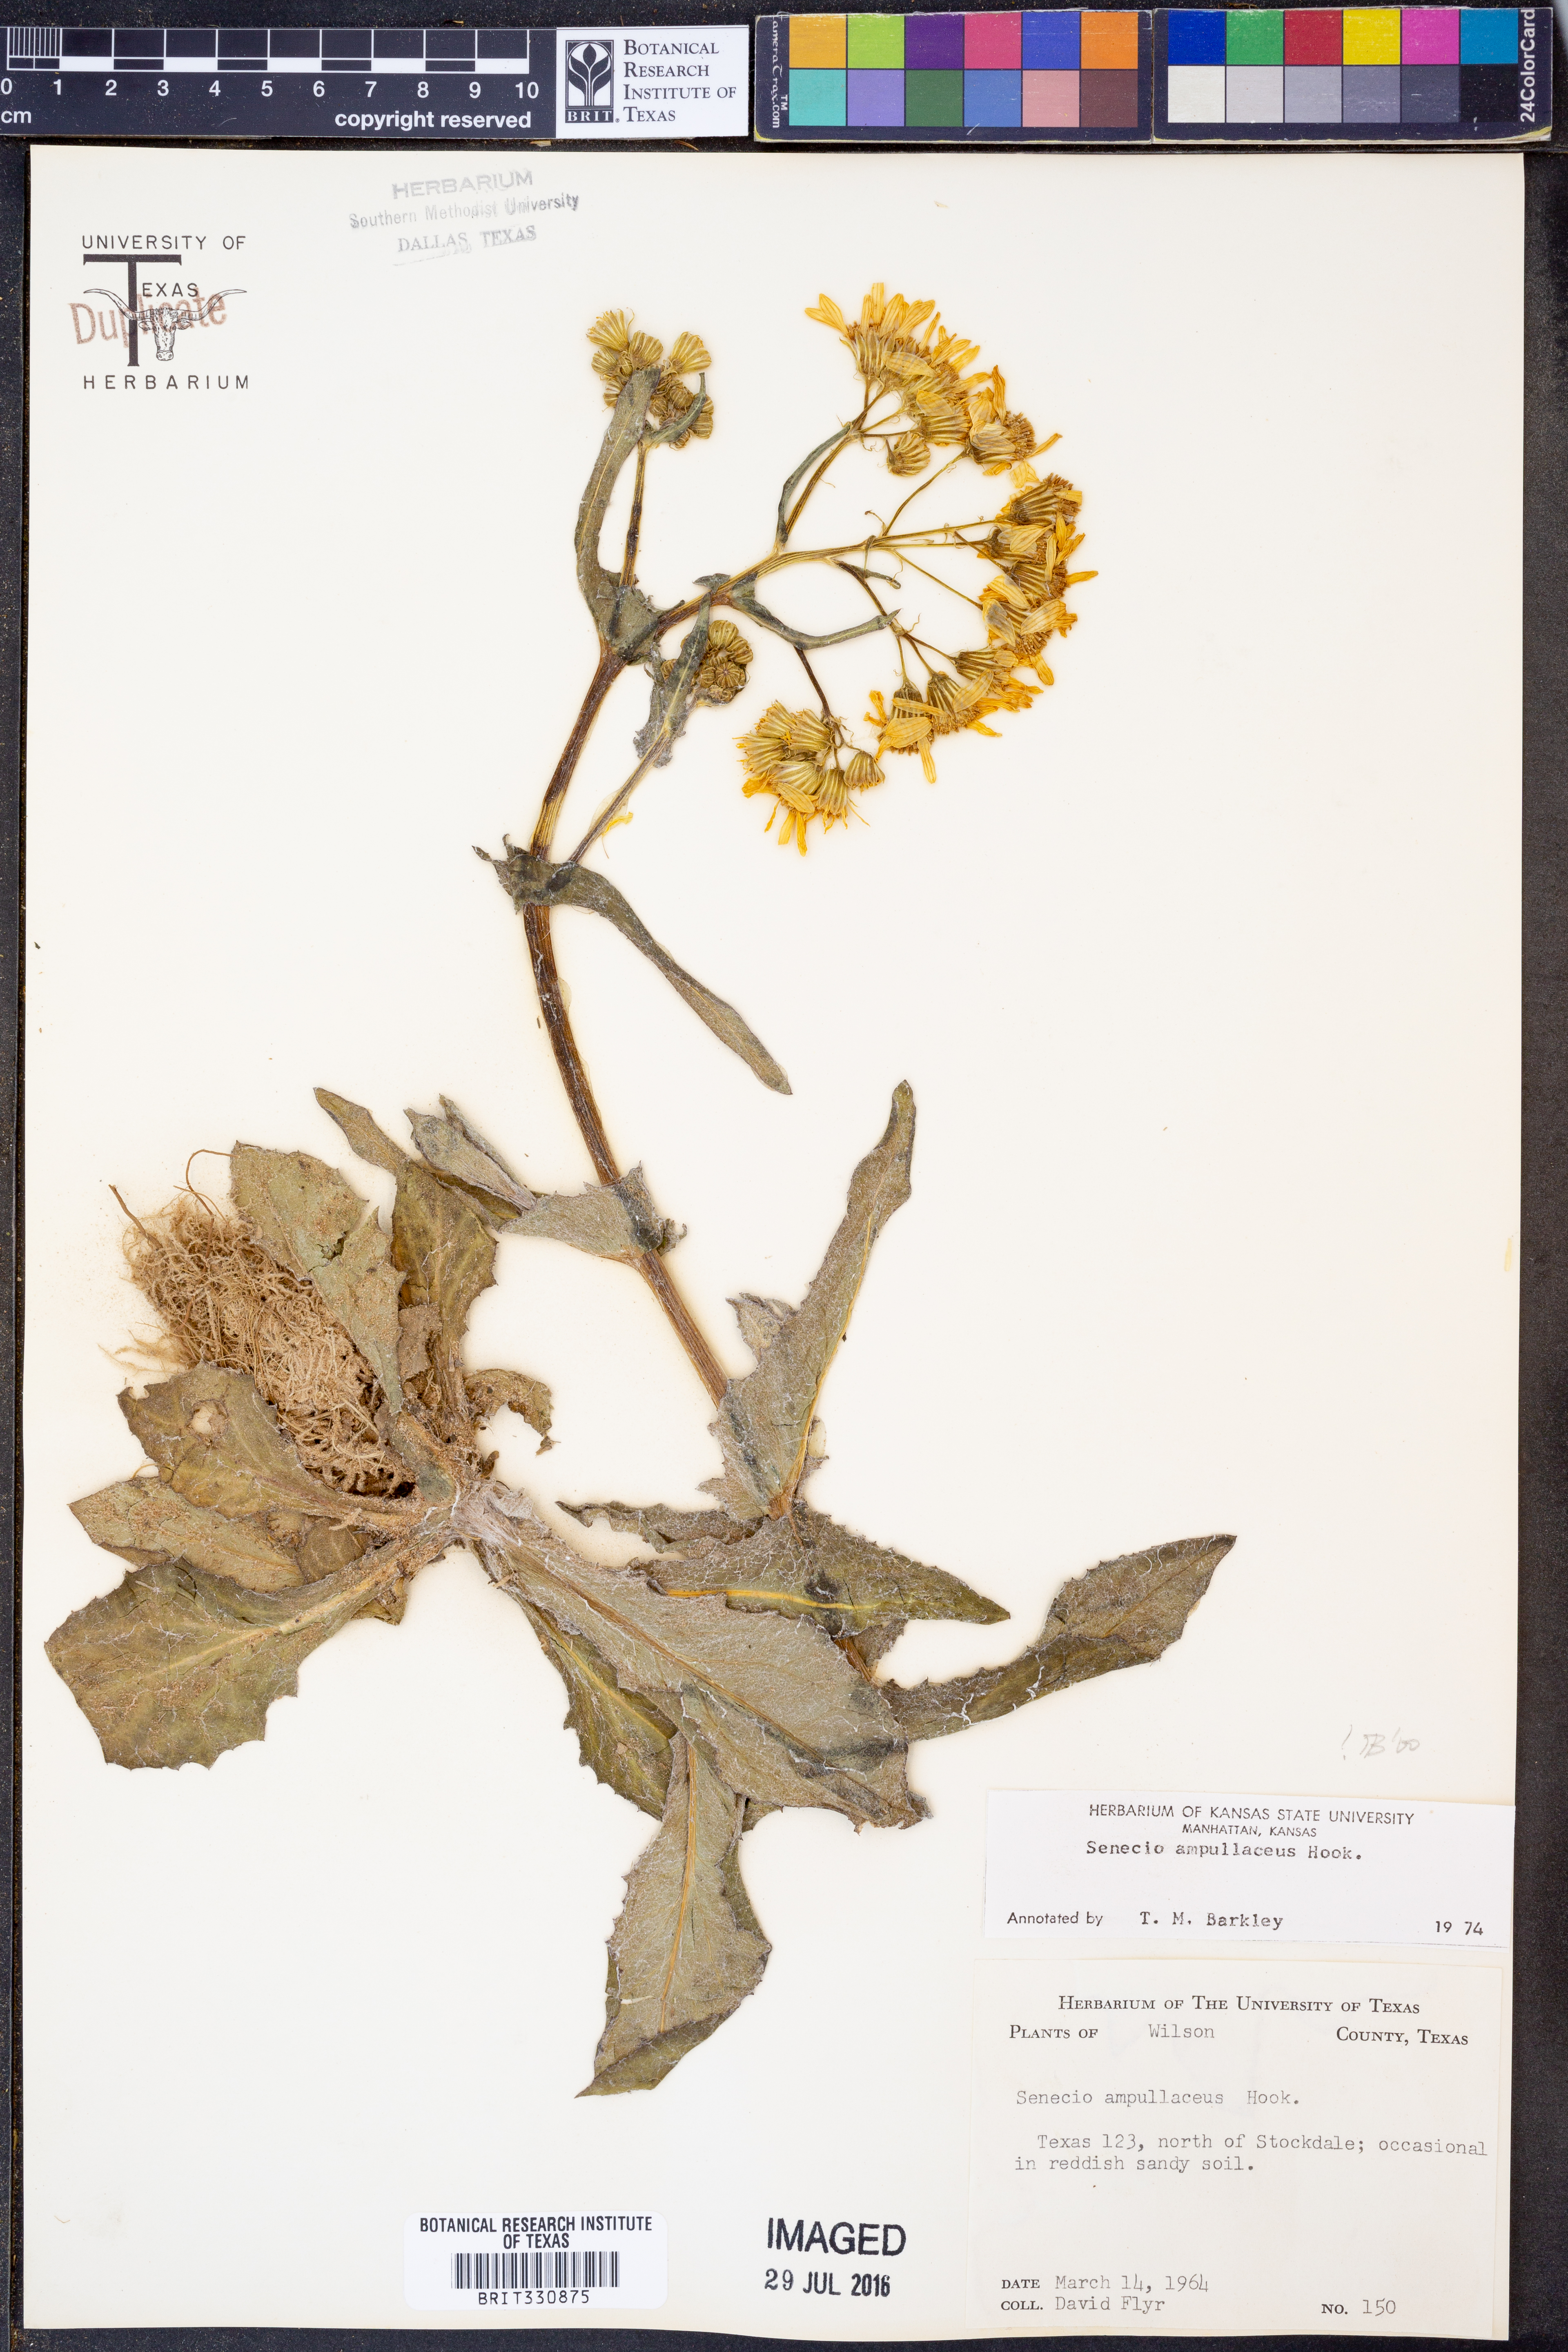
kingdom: Plantae
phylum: Tracheophyta
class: Magnoliopsida
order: Asterales
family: Asteraceae
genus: Senecio
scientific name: Senecio ampullaceus
